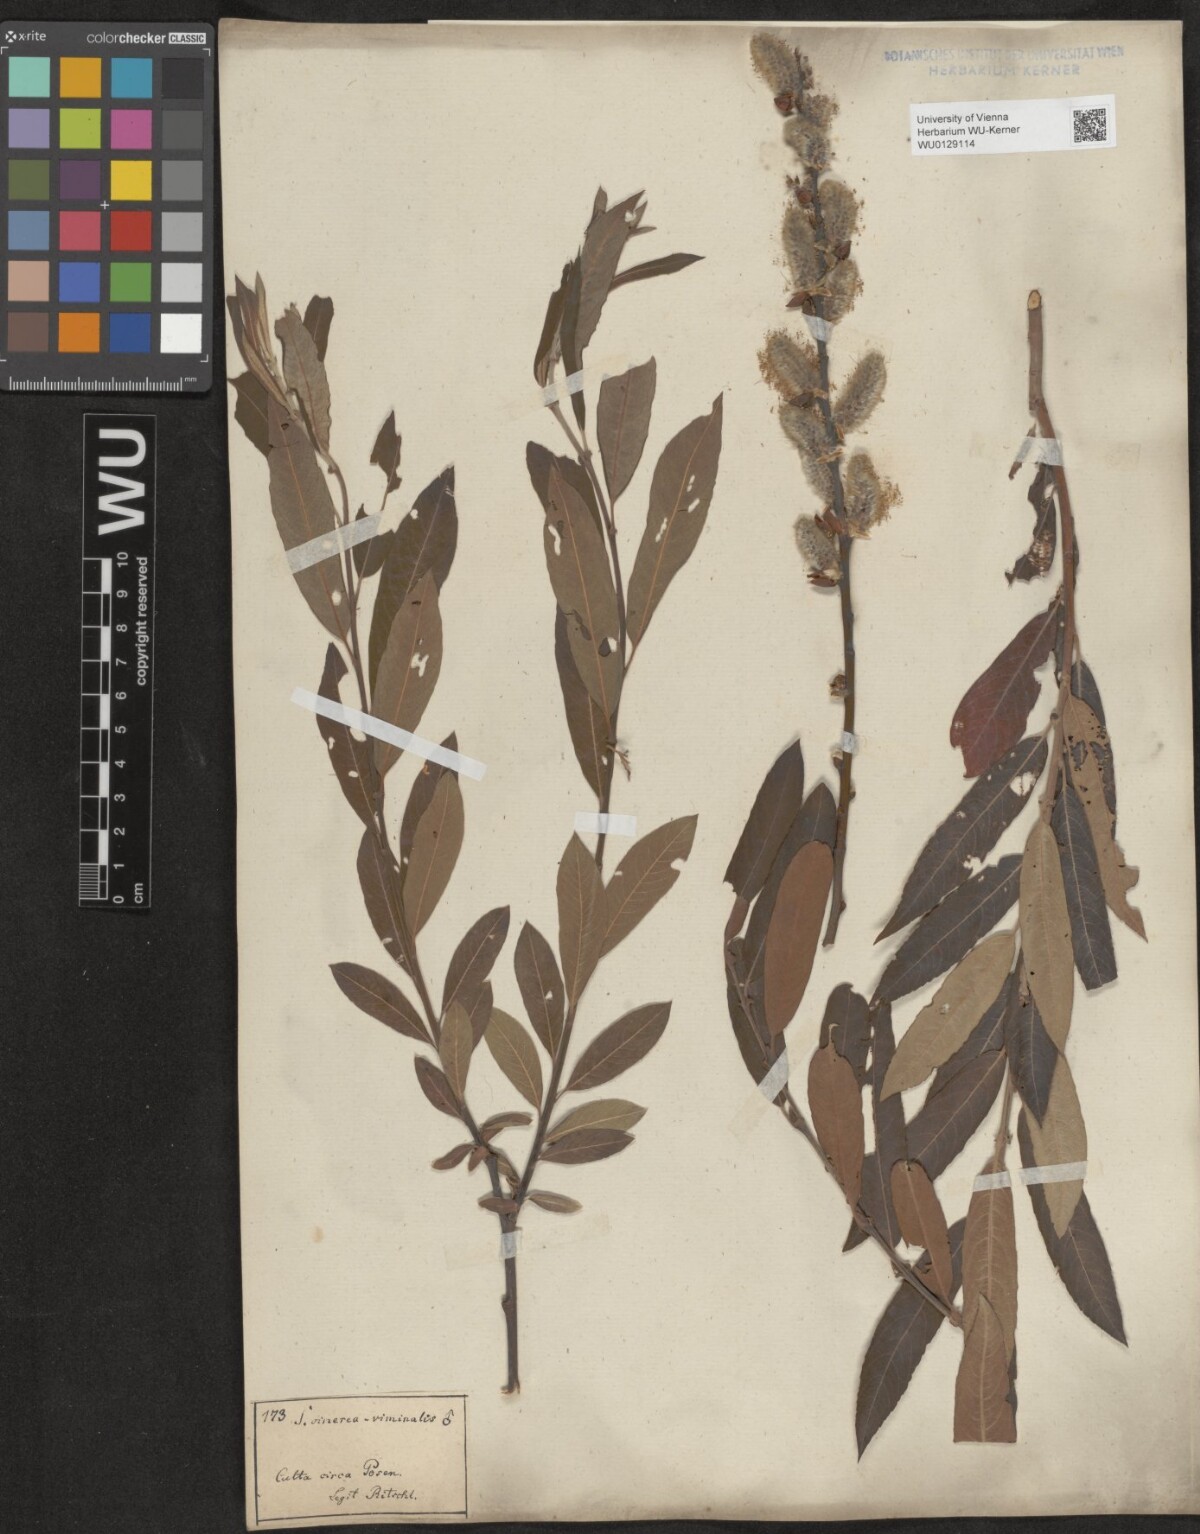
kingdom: Plantae
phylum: Tracheophyta
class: Magnoliopsida
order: Malpighiales
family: Salicaceae
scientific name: Salicaceae
